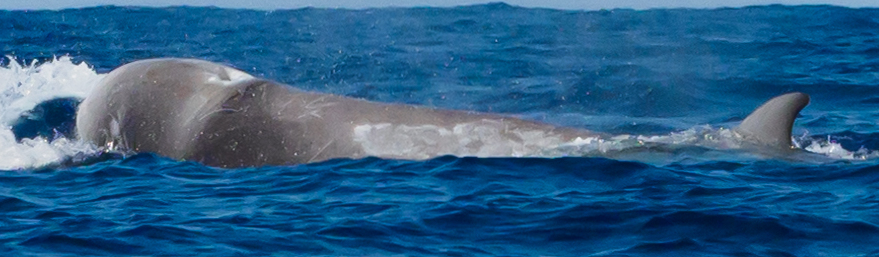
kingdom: Animalia
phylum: Chordata
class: Mammalia
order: Cetacea
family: Hyperoodontidae
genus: Hyperoodon
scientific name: Hyperoodon ampullatus
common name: Northern bottlenose whale
